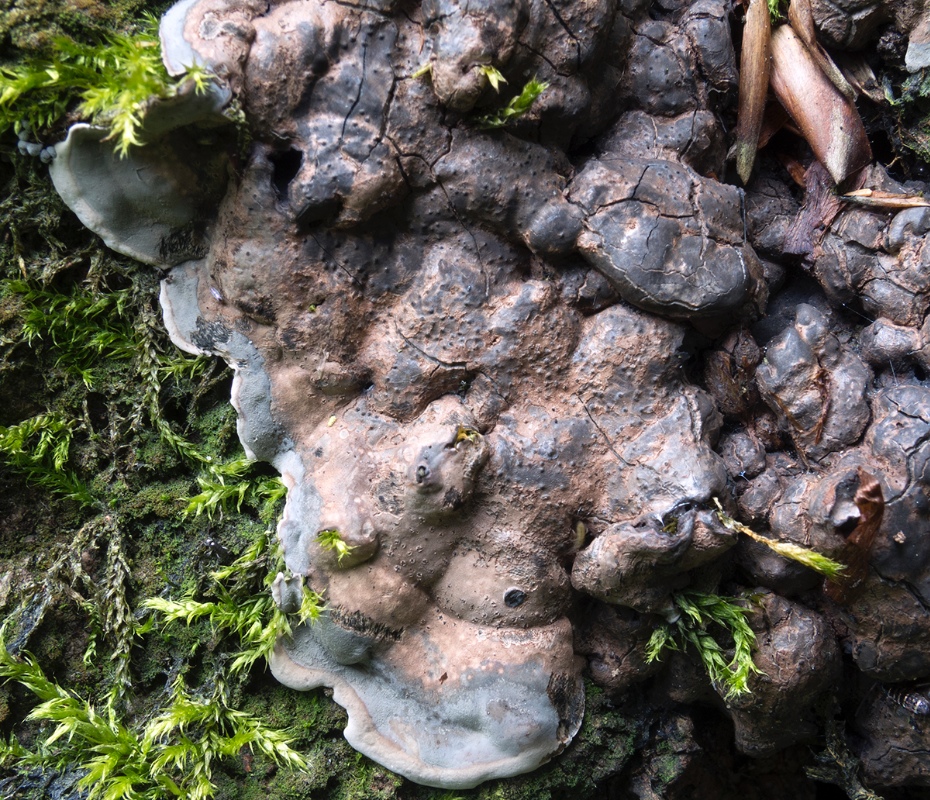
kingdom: Fungi
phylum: Ascomycota
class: Sordariomycetes
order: Xylariales
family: Xylariaceae
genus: Kretzschmaria
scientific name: Kretzschmaria deusta
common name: stor kulsvamp
